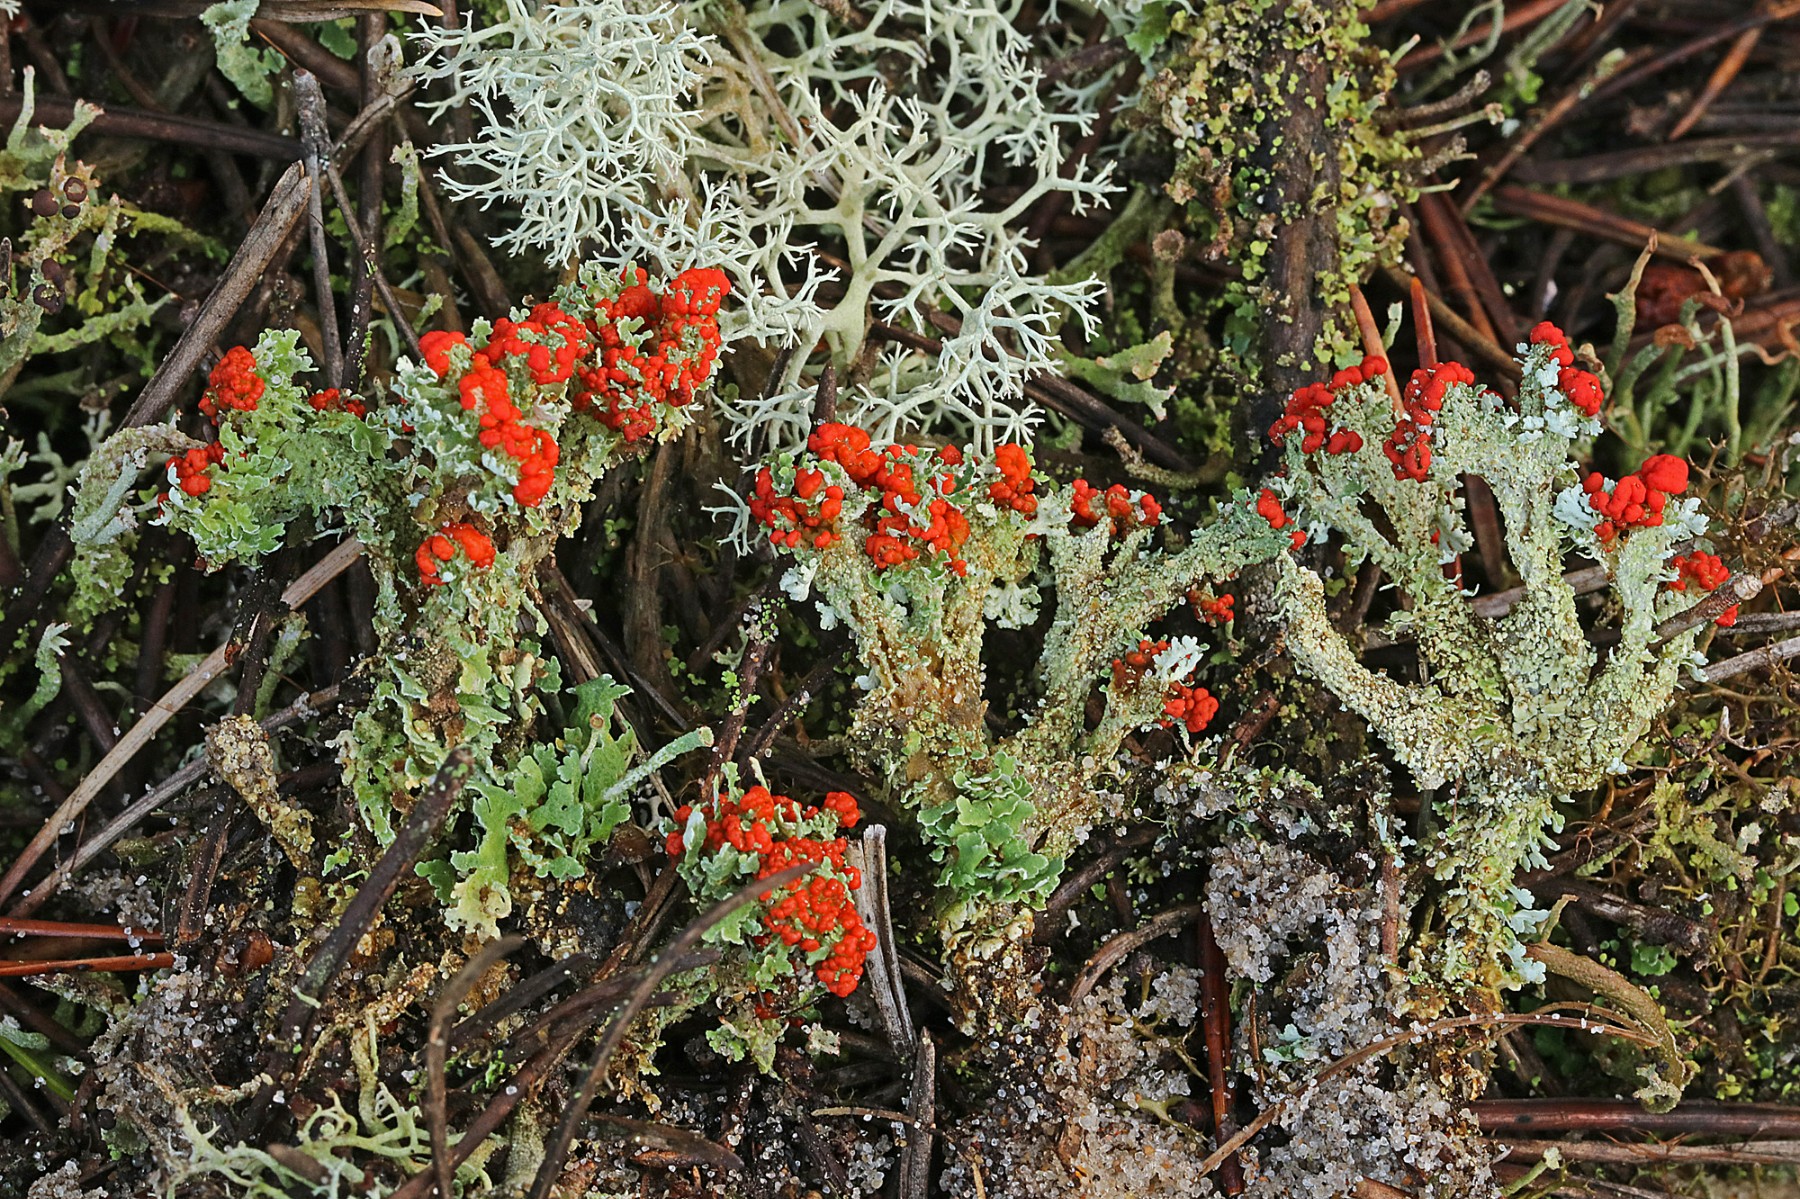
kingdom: Fungi
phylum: Ascomycota
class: Lecanoromycetes
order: Lecanorales
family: Cladoniaceae
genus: Cladonia
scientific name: Cladonia floerkeana
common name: lakrød bægerlav
